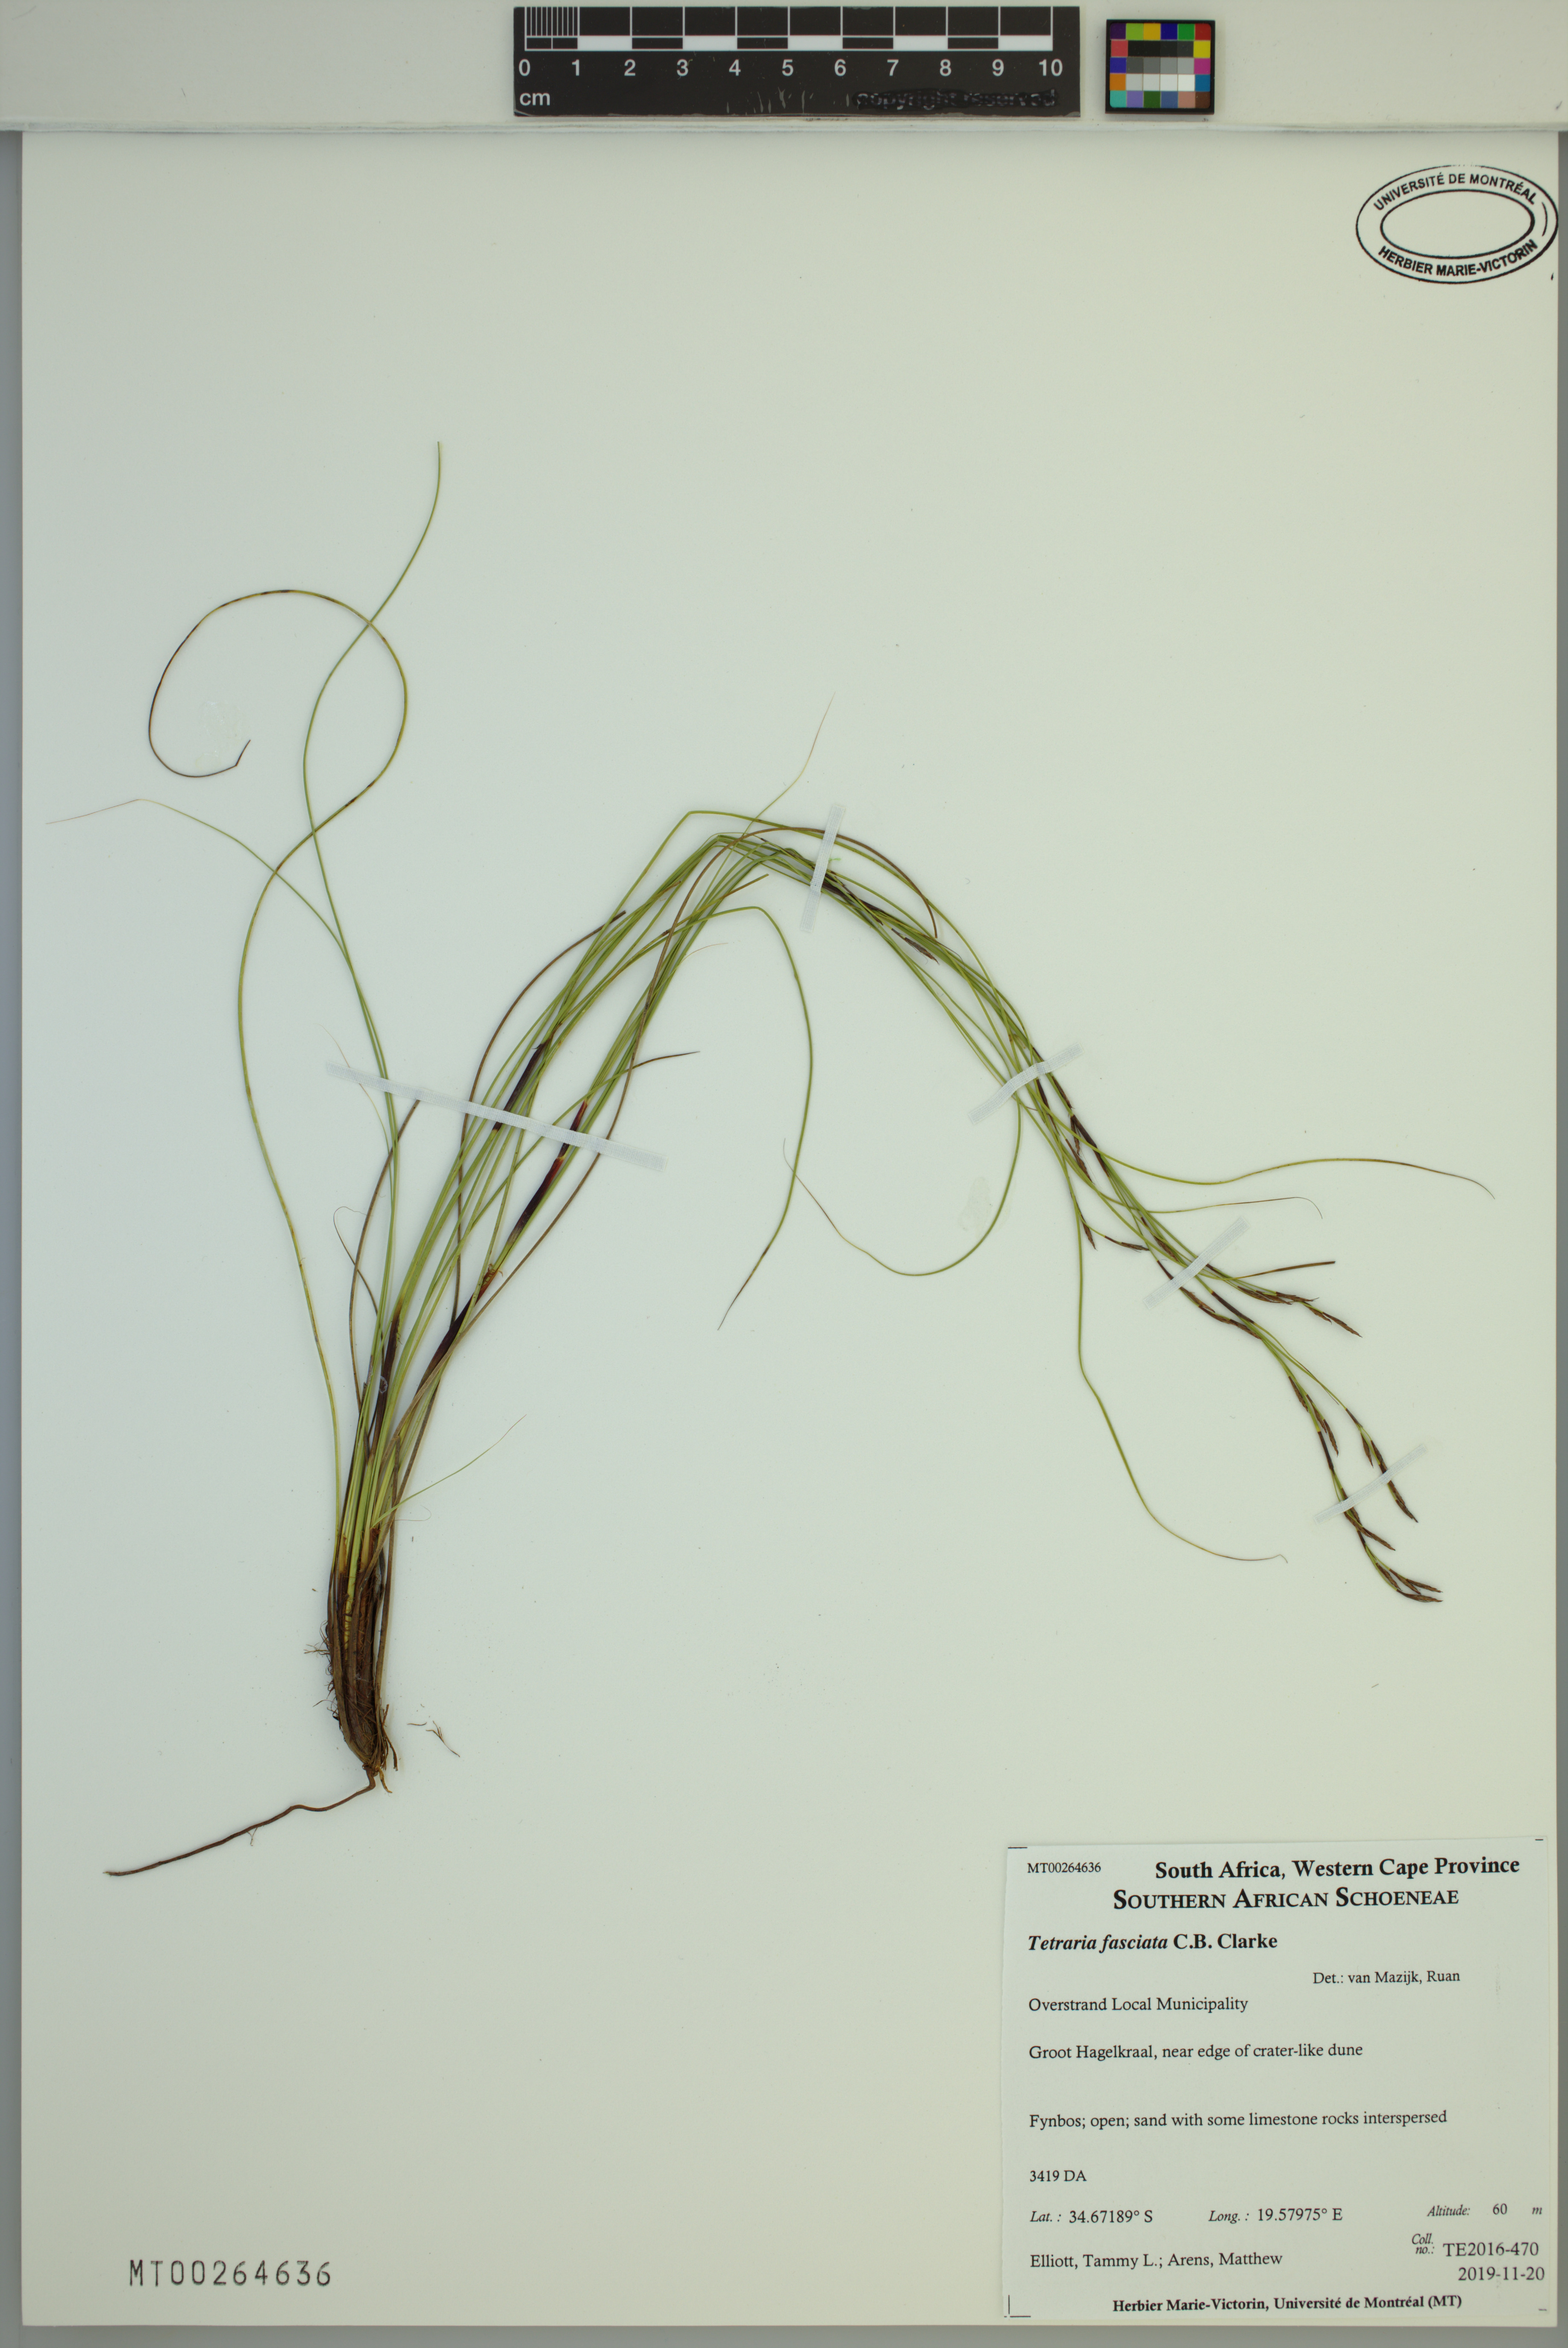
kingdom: Plantae
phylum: Tracheophyta
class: Liliopsida
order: Poales
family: Cyperaceae
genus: Tetraria
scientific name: Tetraria fasciata
